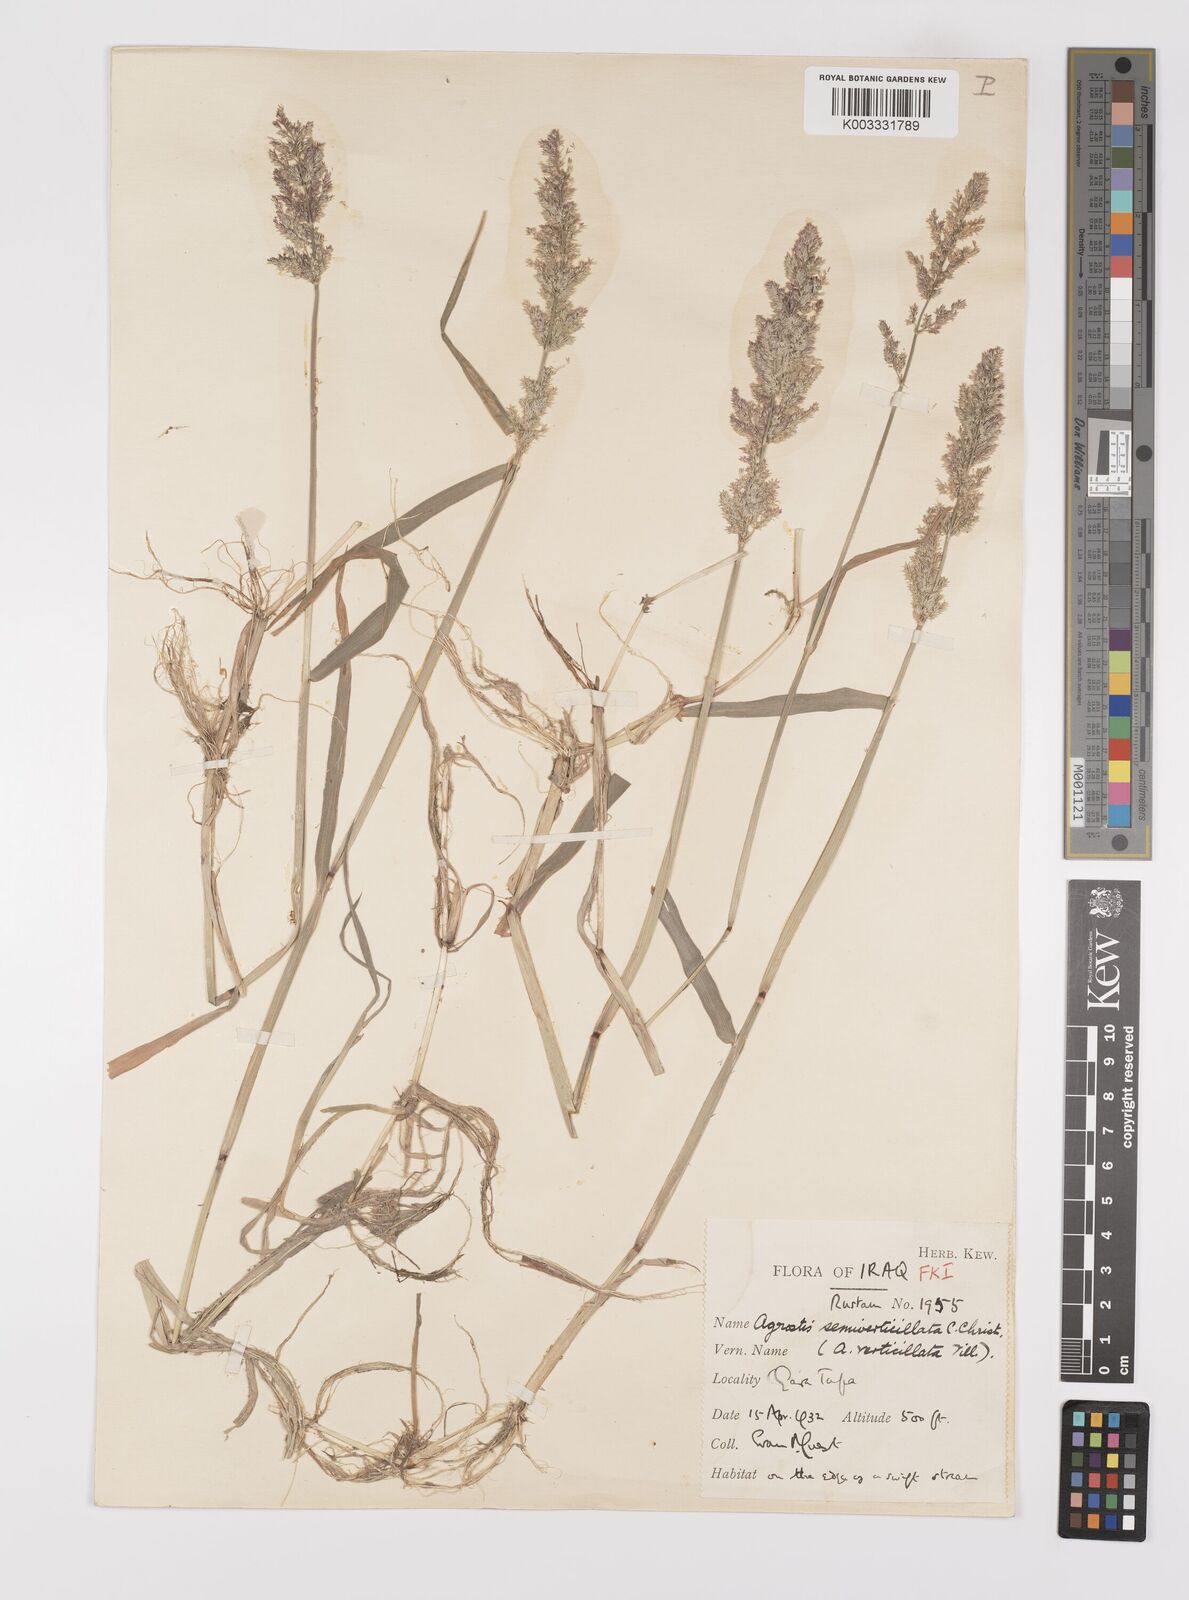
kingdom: Plantae
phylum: Tracheophyta
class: Liliopsida
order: Poales
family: Poaceae
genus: Polypogon
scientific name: Polypogon viridis
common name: Water bent
